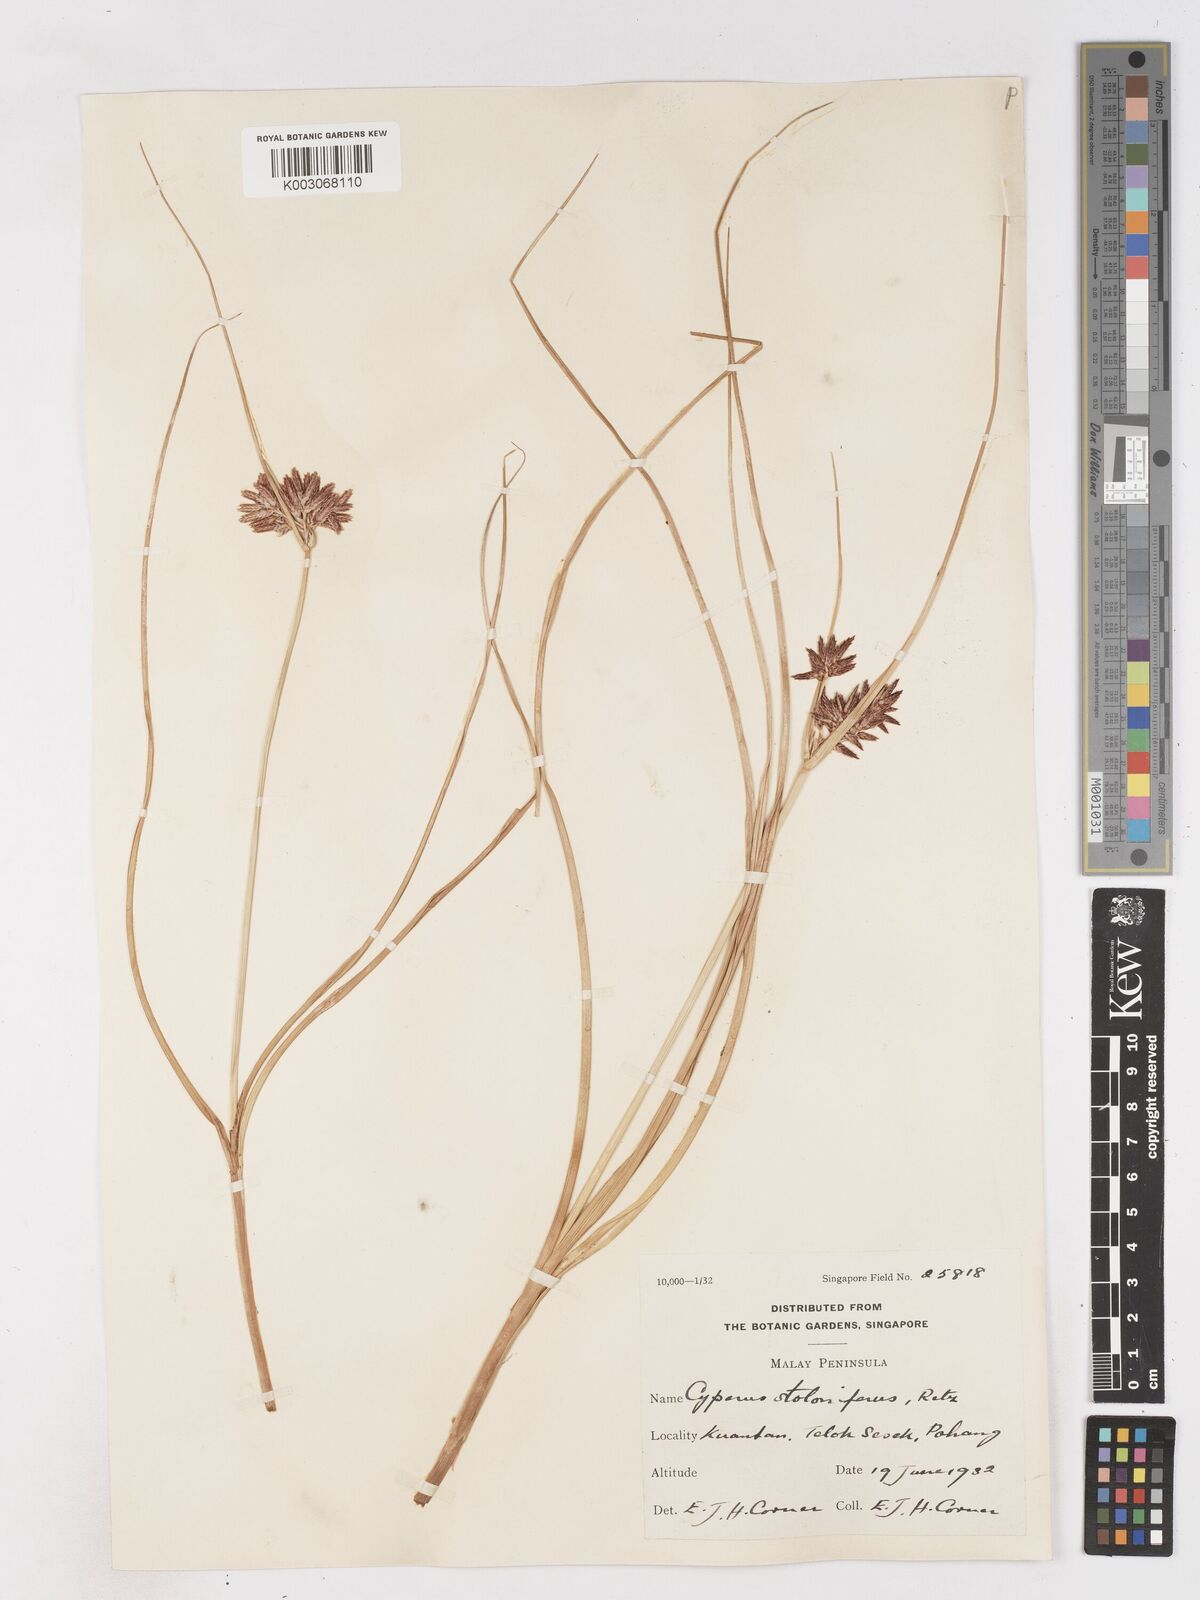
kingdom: Plantae
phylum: Tracheophyta
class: Liliopsida
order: Poales
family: Cyperaceae
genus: Cyperus
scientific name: Cyperus bulbosus
